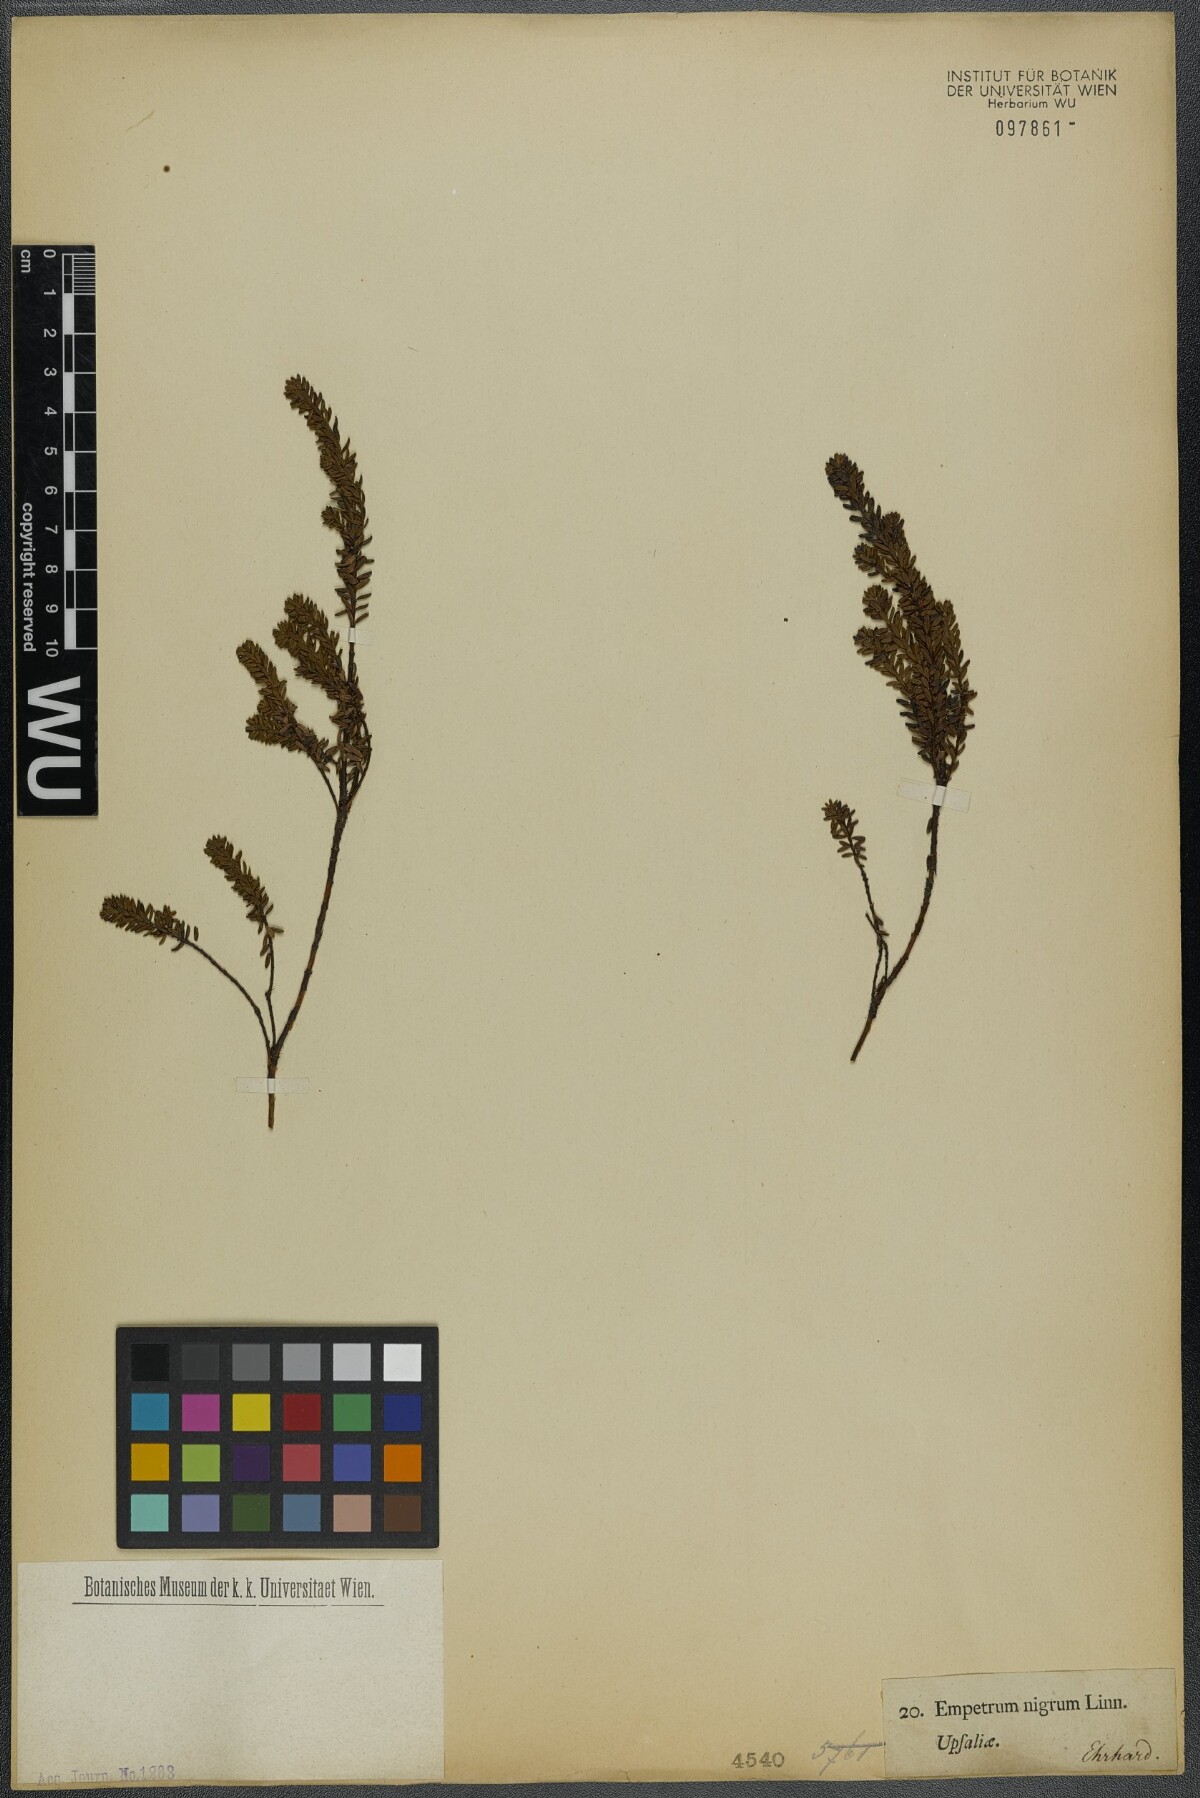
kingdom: Plantae
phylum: Tracheophyta
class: Magnoliopsida
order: Ericales
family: Ericaceae
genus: Empetrum
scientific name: Empetrum nigrum
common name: Black crowberry
